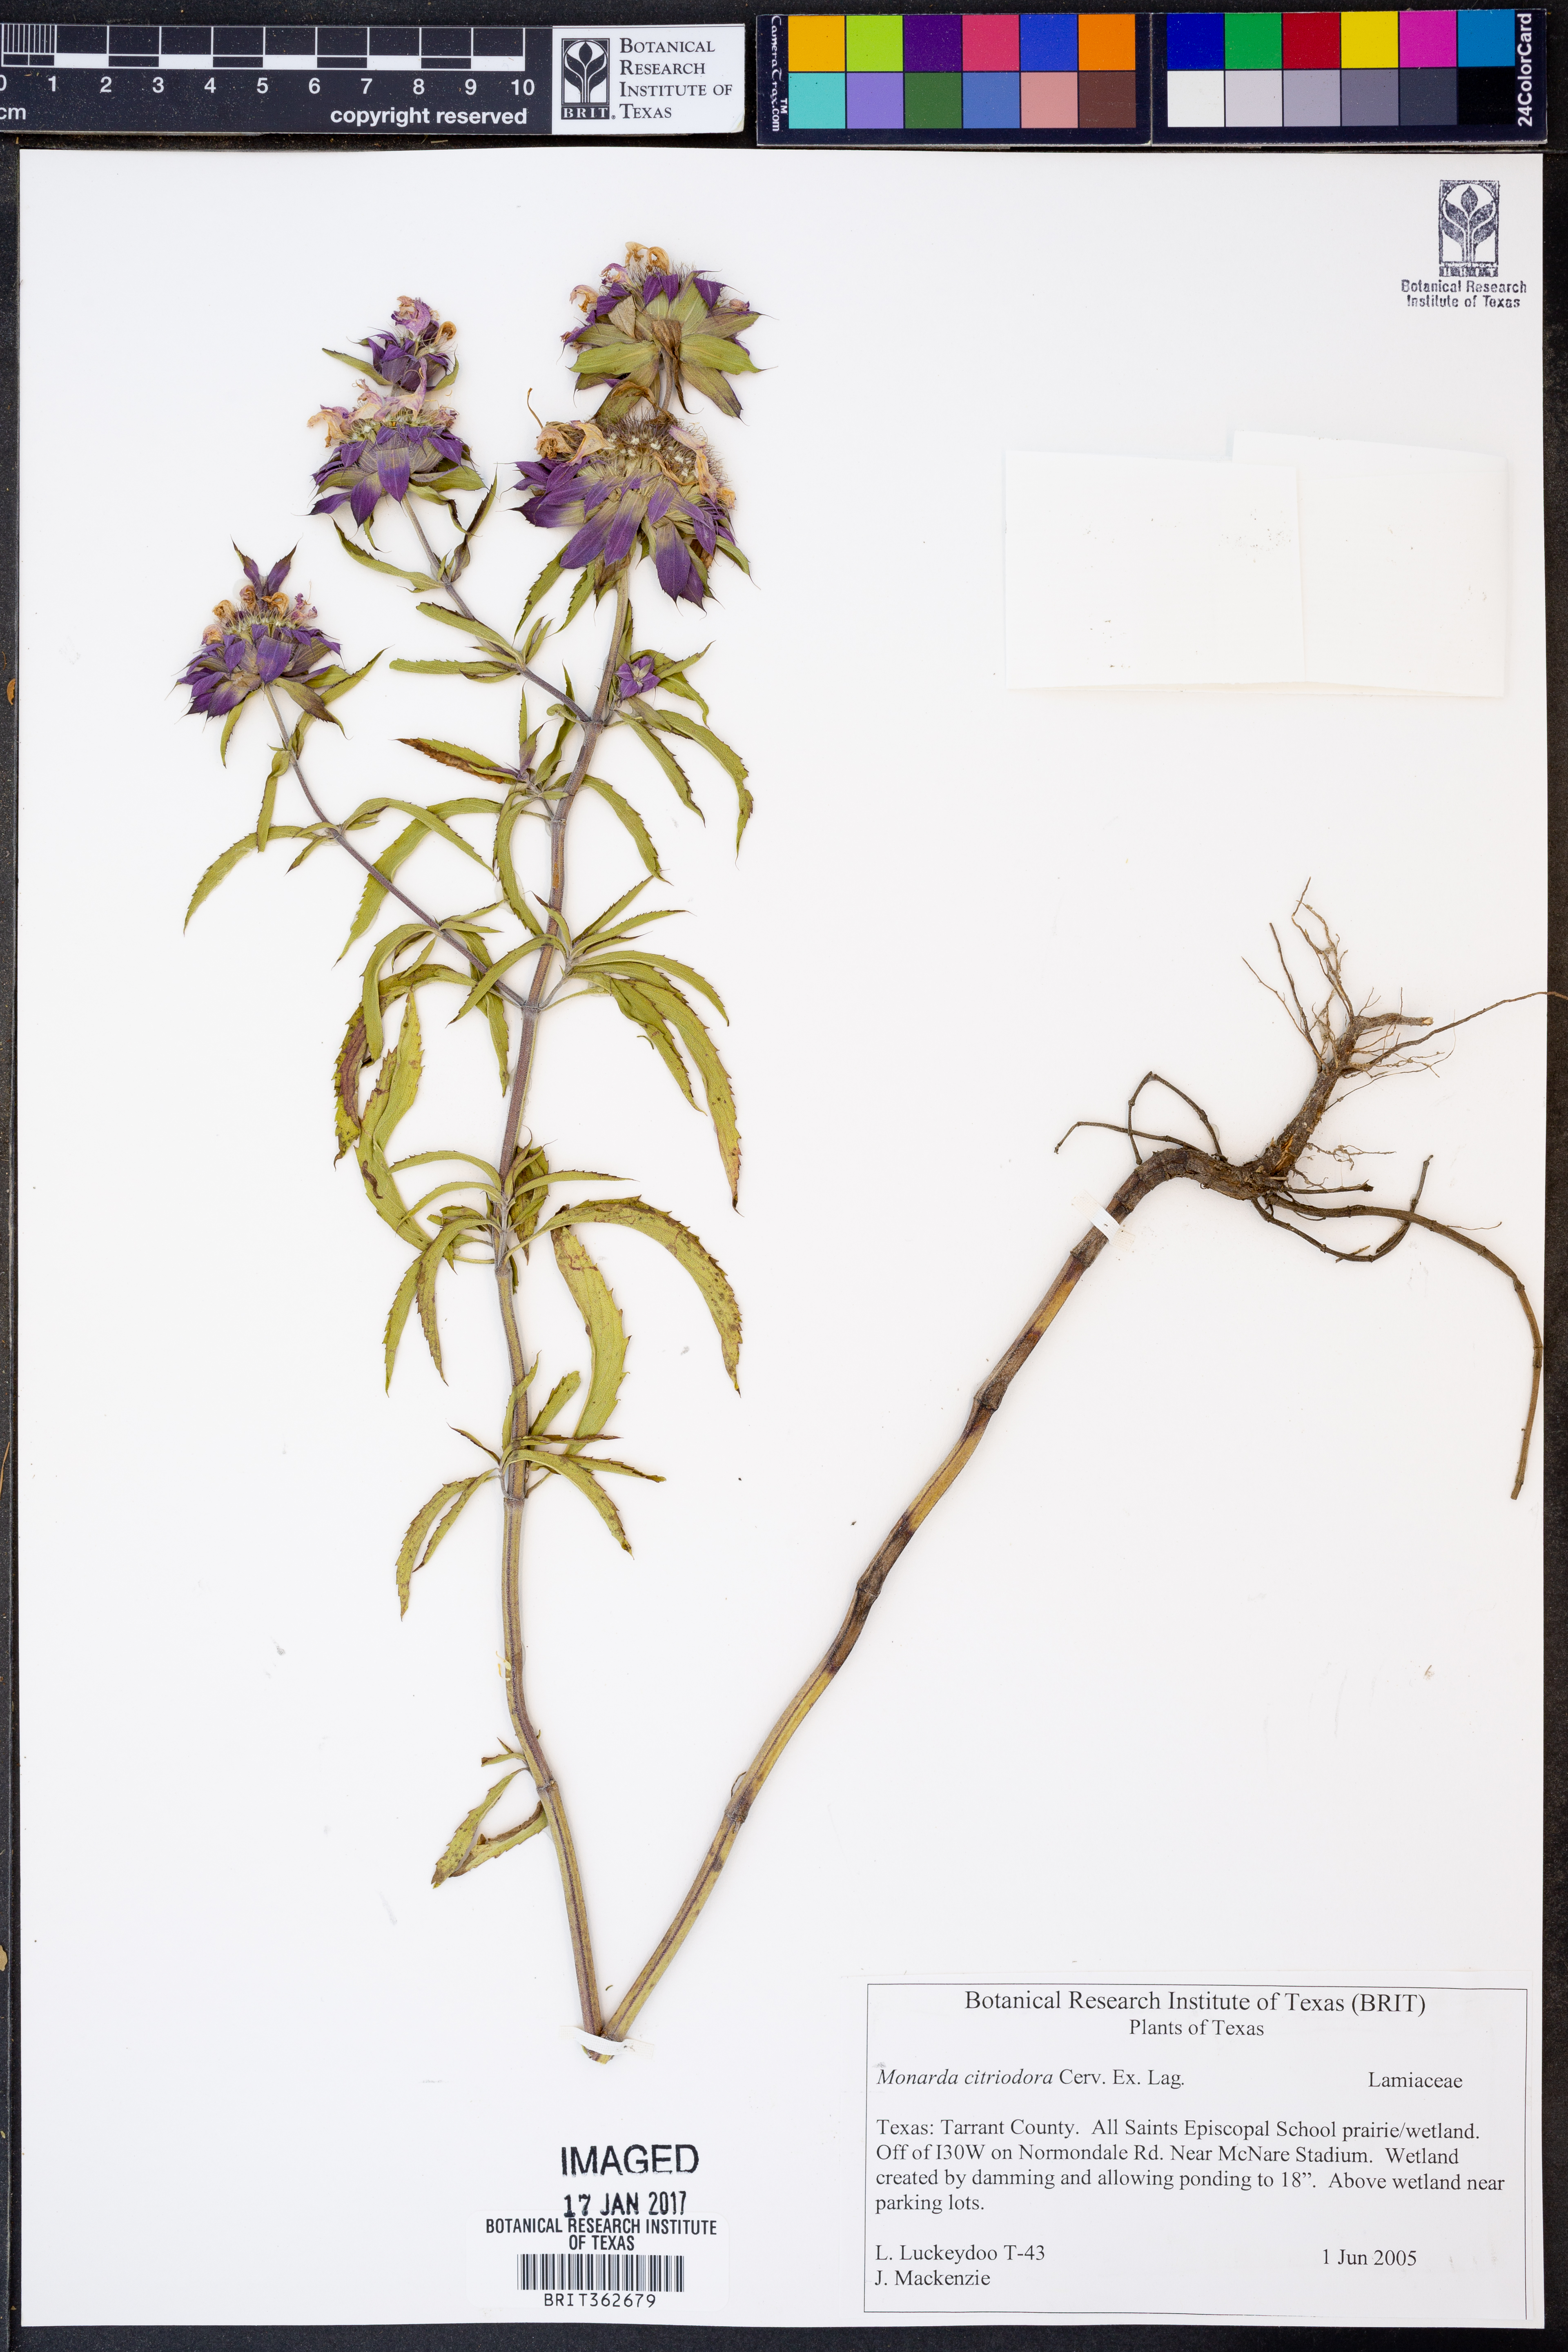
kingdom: Plantae
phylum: Tracheophyta
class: Magnoliopsida
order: Lamiales
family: Lamiaceae
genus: Monarda
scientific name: Monarda citriodora
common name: Lemon beebalm
